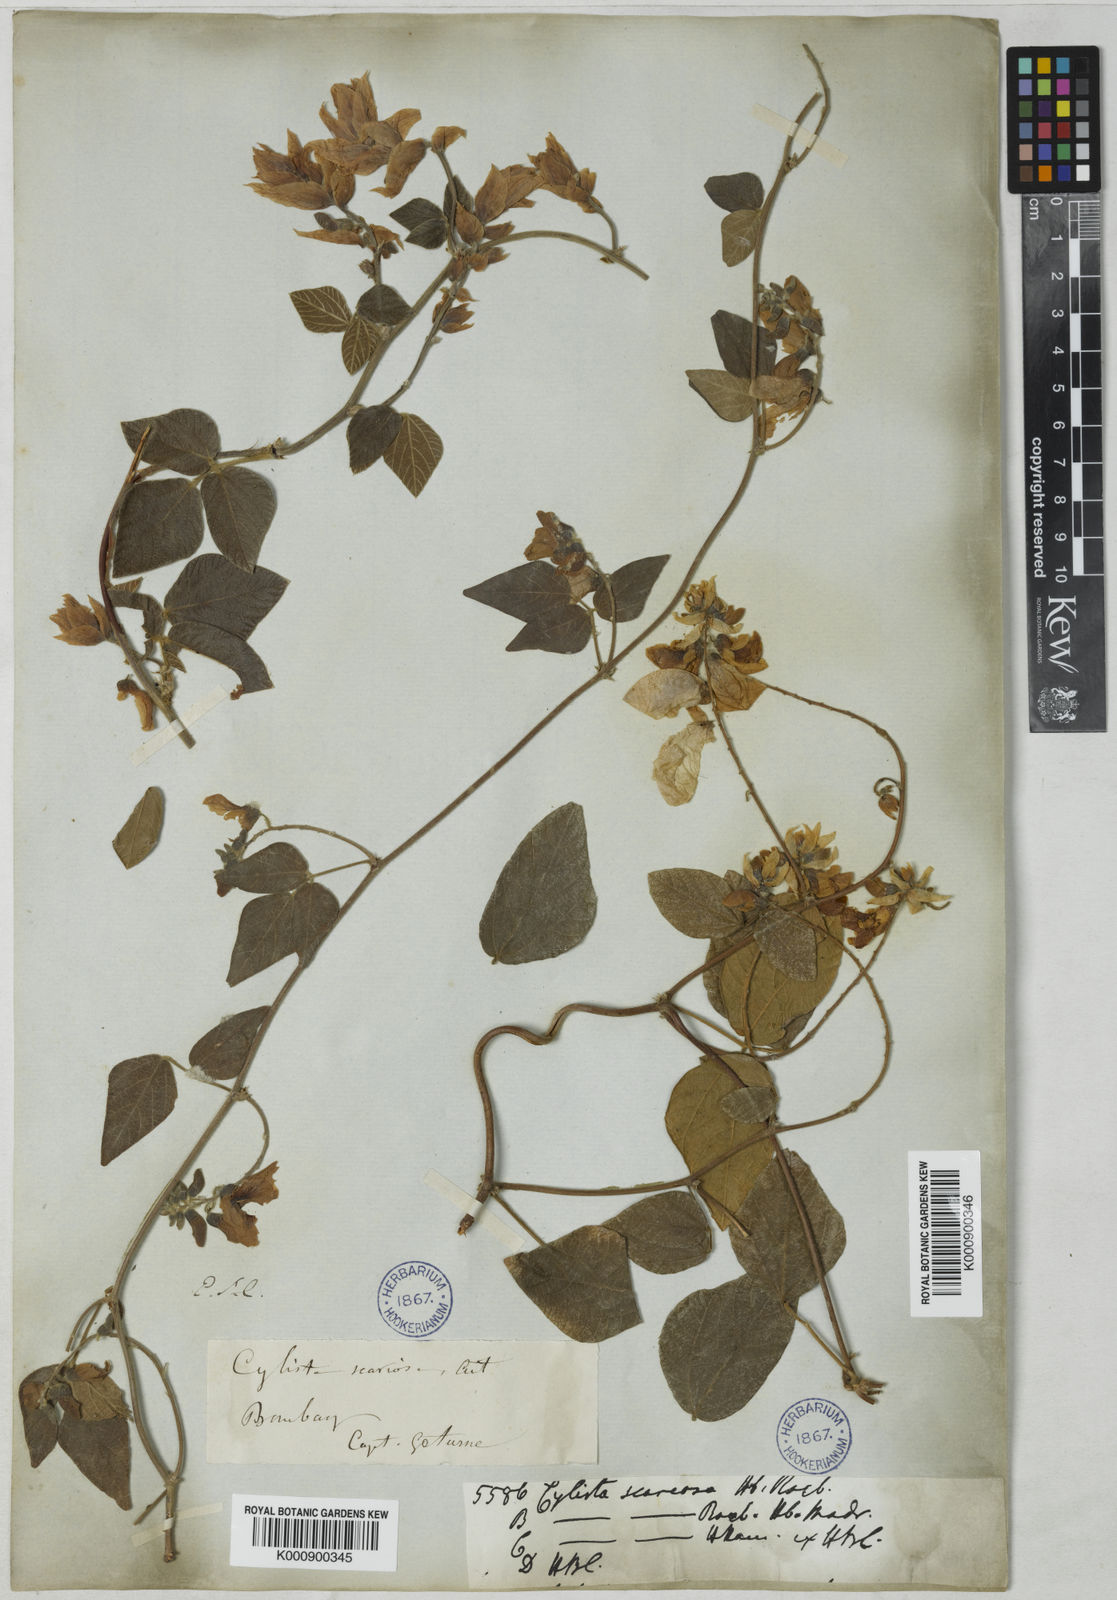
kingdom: Plantae
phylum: Tracheophyta
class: Magnoliopsida
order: Fabales
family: Fabaceae
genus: Paracalyx
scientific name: Paracalyx scariosus
